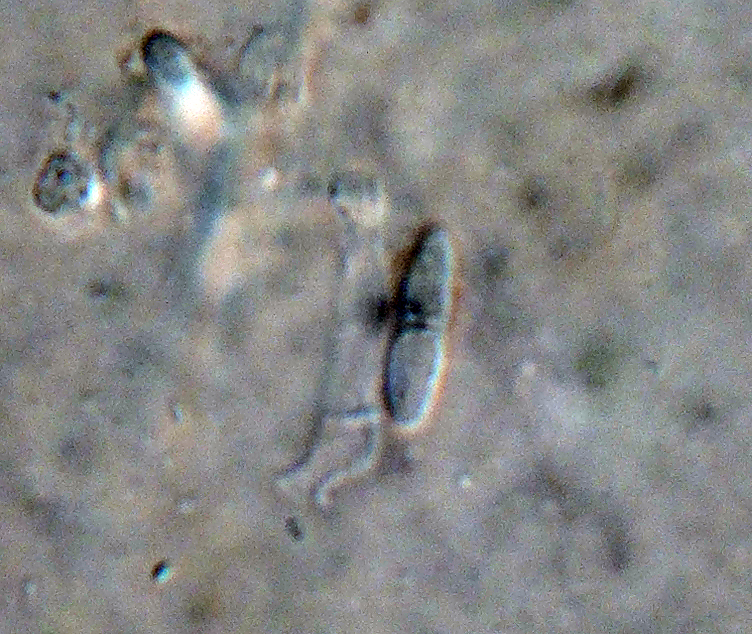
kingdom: Fungi
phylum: Ascomycota
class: Leotiomycetes
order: Helotiales
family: Pezizellaceae
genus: Calycina
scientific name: Calycina claroflava
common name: snyltende gulskive
